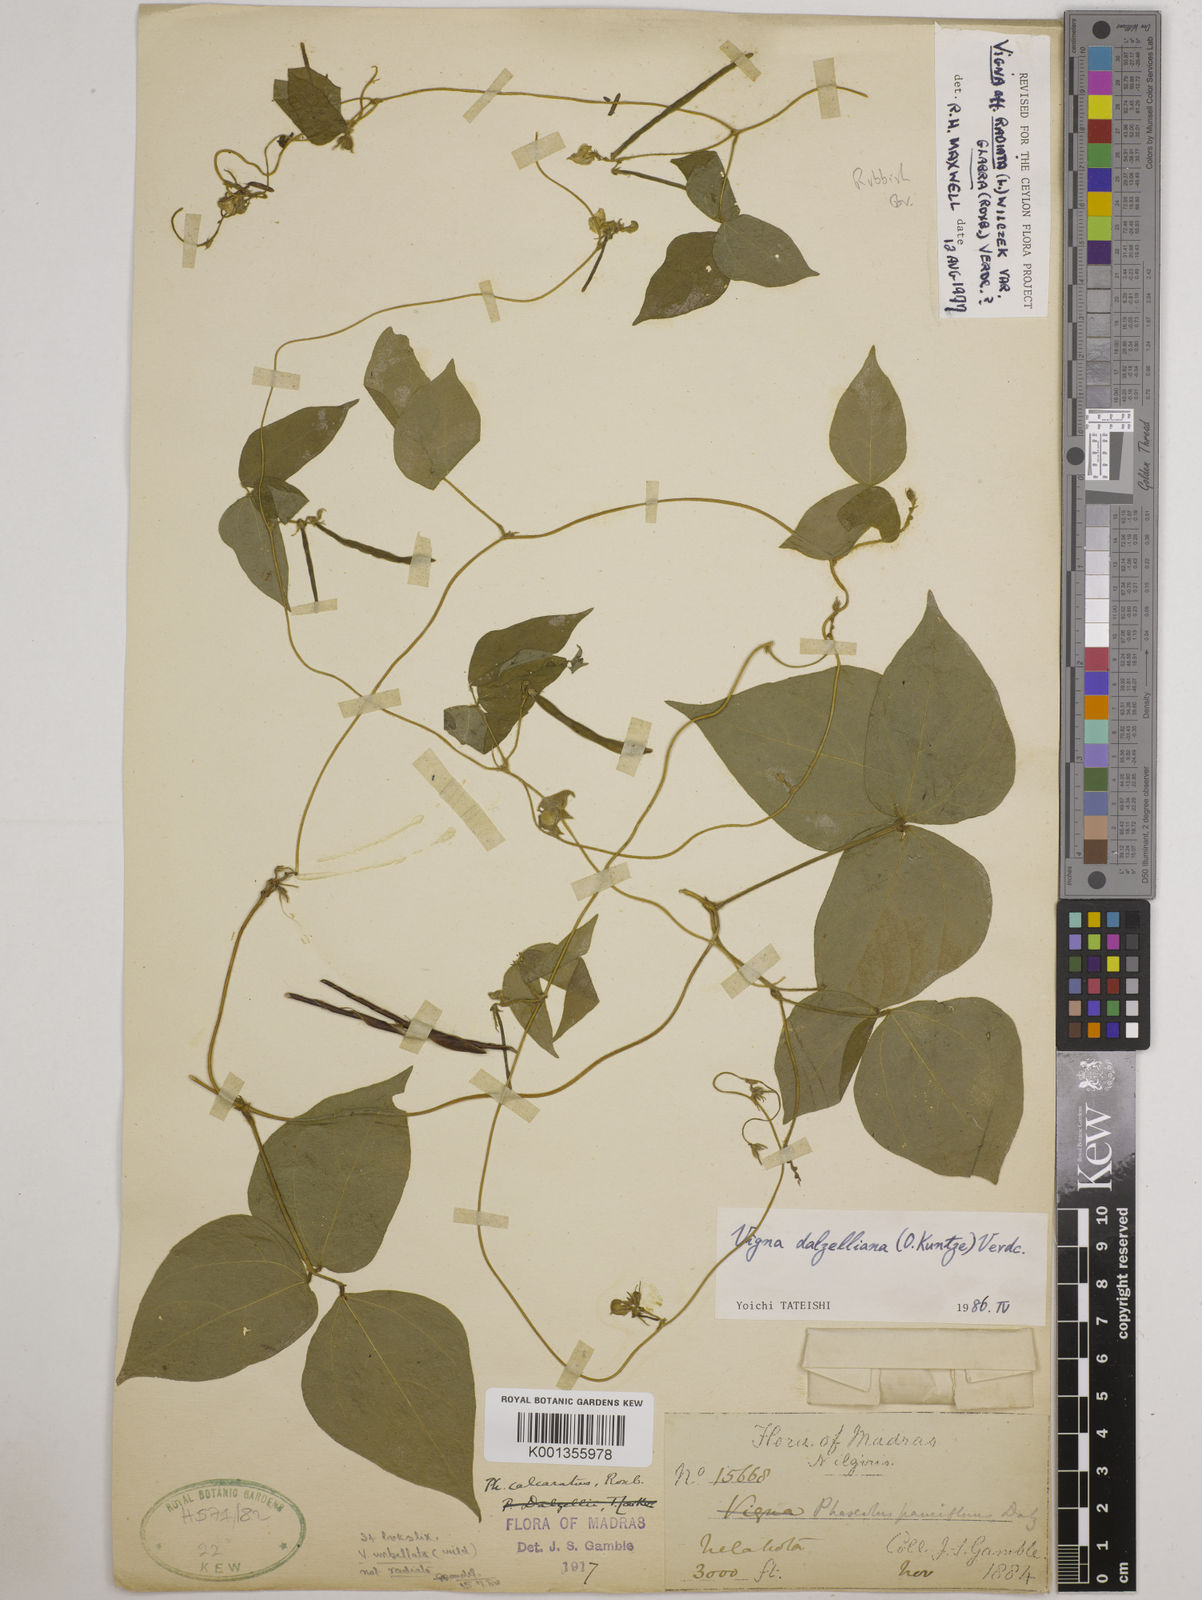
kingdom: Plantae
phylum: Tracheophyta
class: Magnoliopsida
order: Fabales
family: Fabaceae
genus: Vigna
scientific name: Vigna dalzelliana
